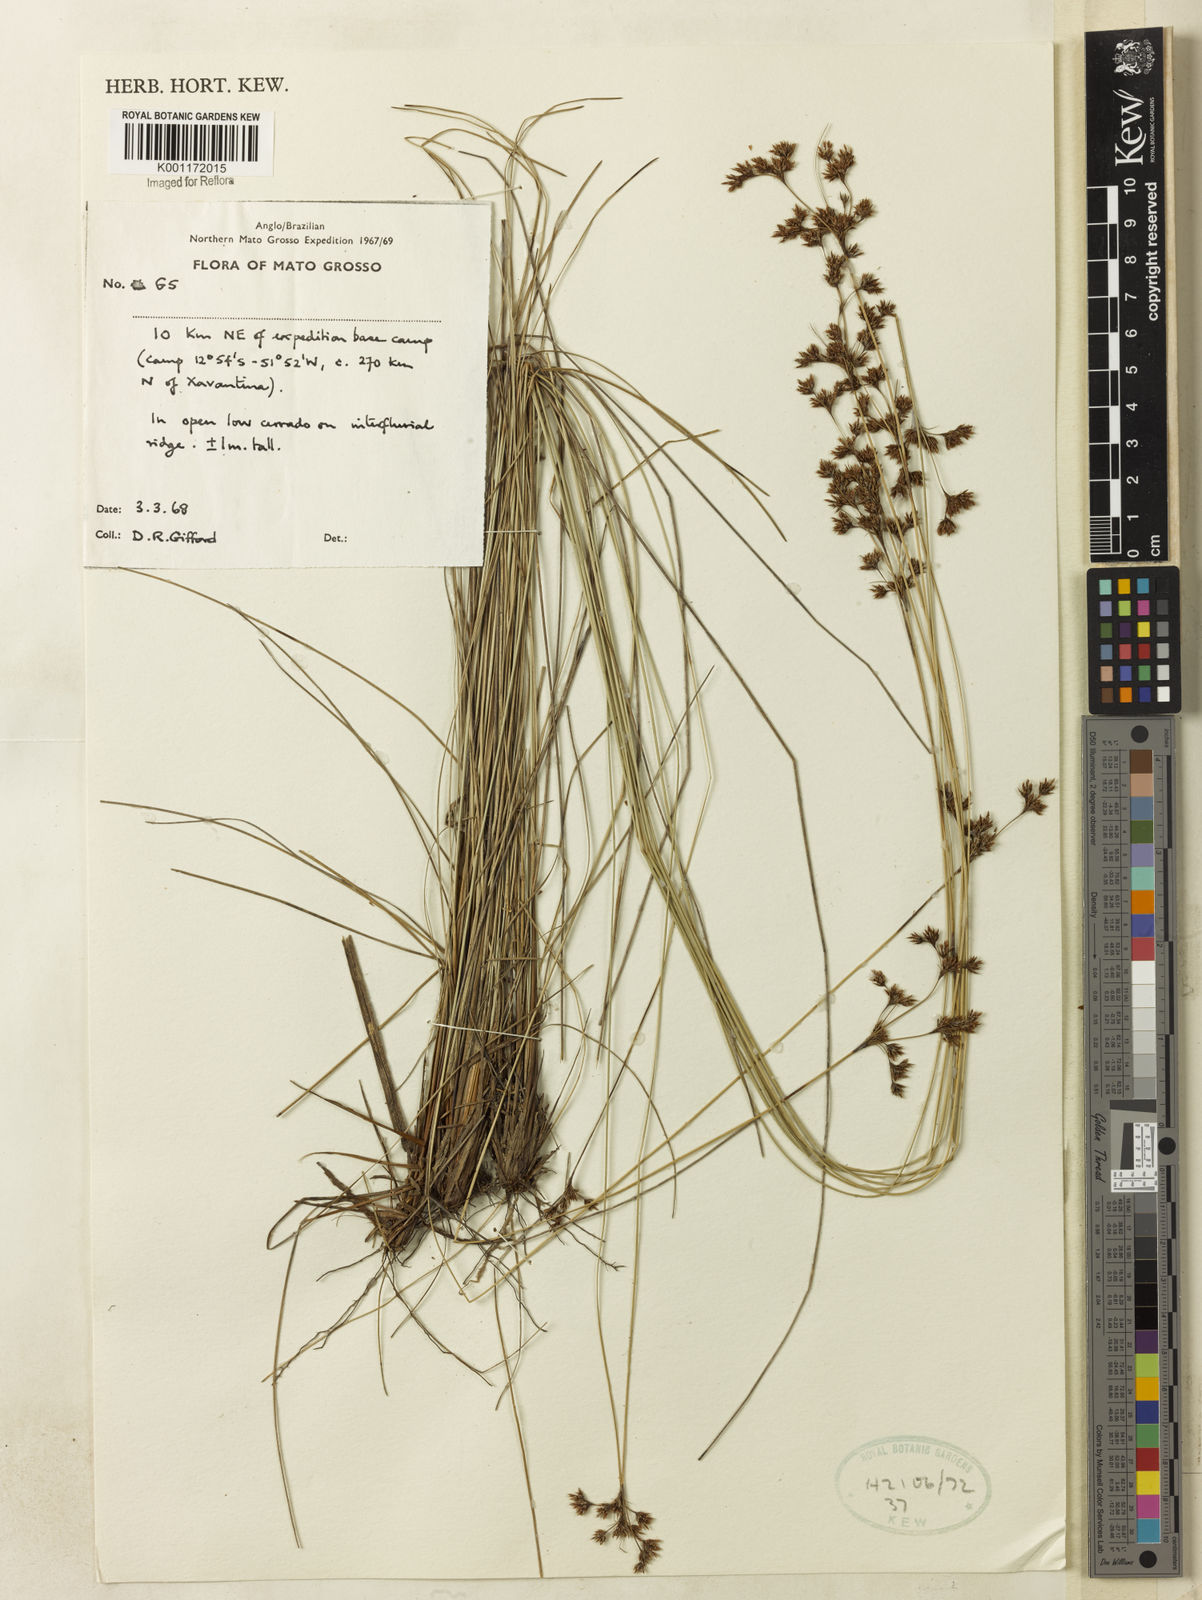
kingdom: Plantae
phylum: Tracheophyta
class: Liliopsida
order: Poales
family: Cyperaceae
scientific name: Cyperaceae
